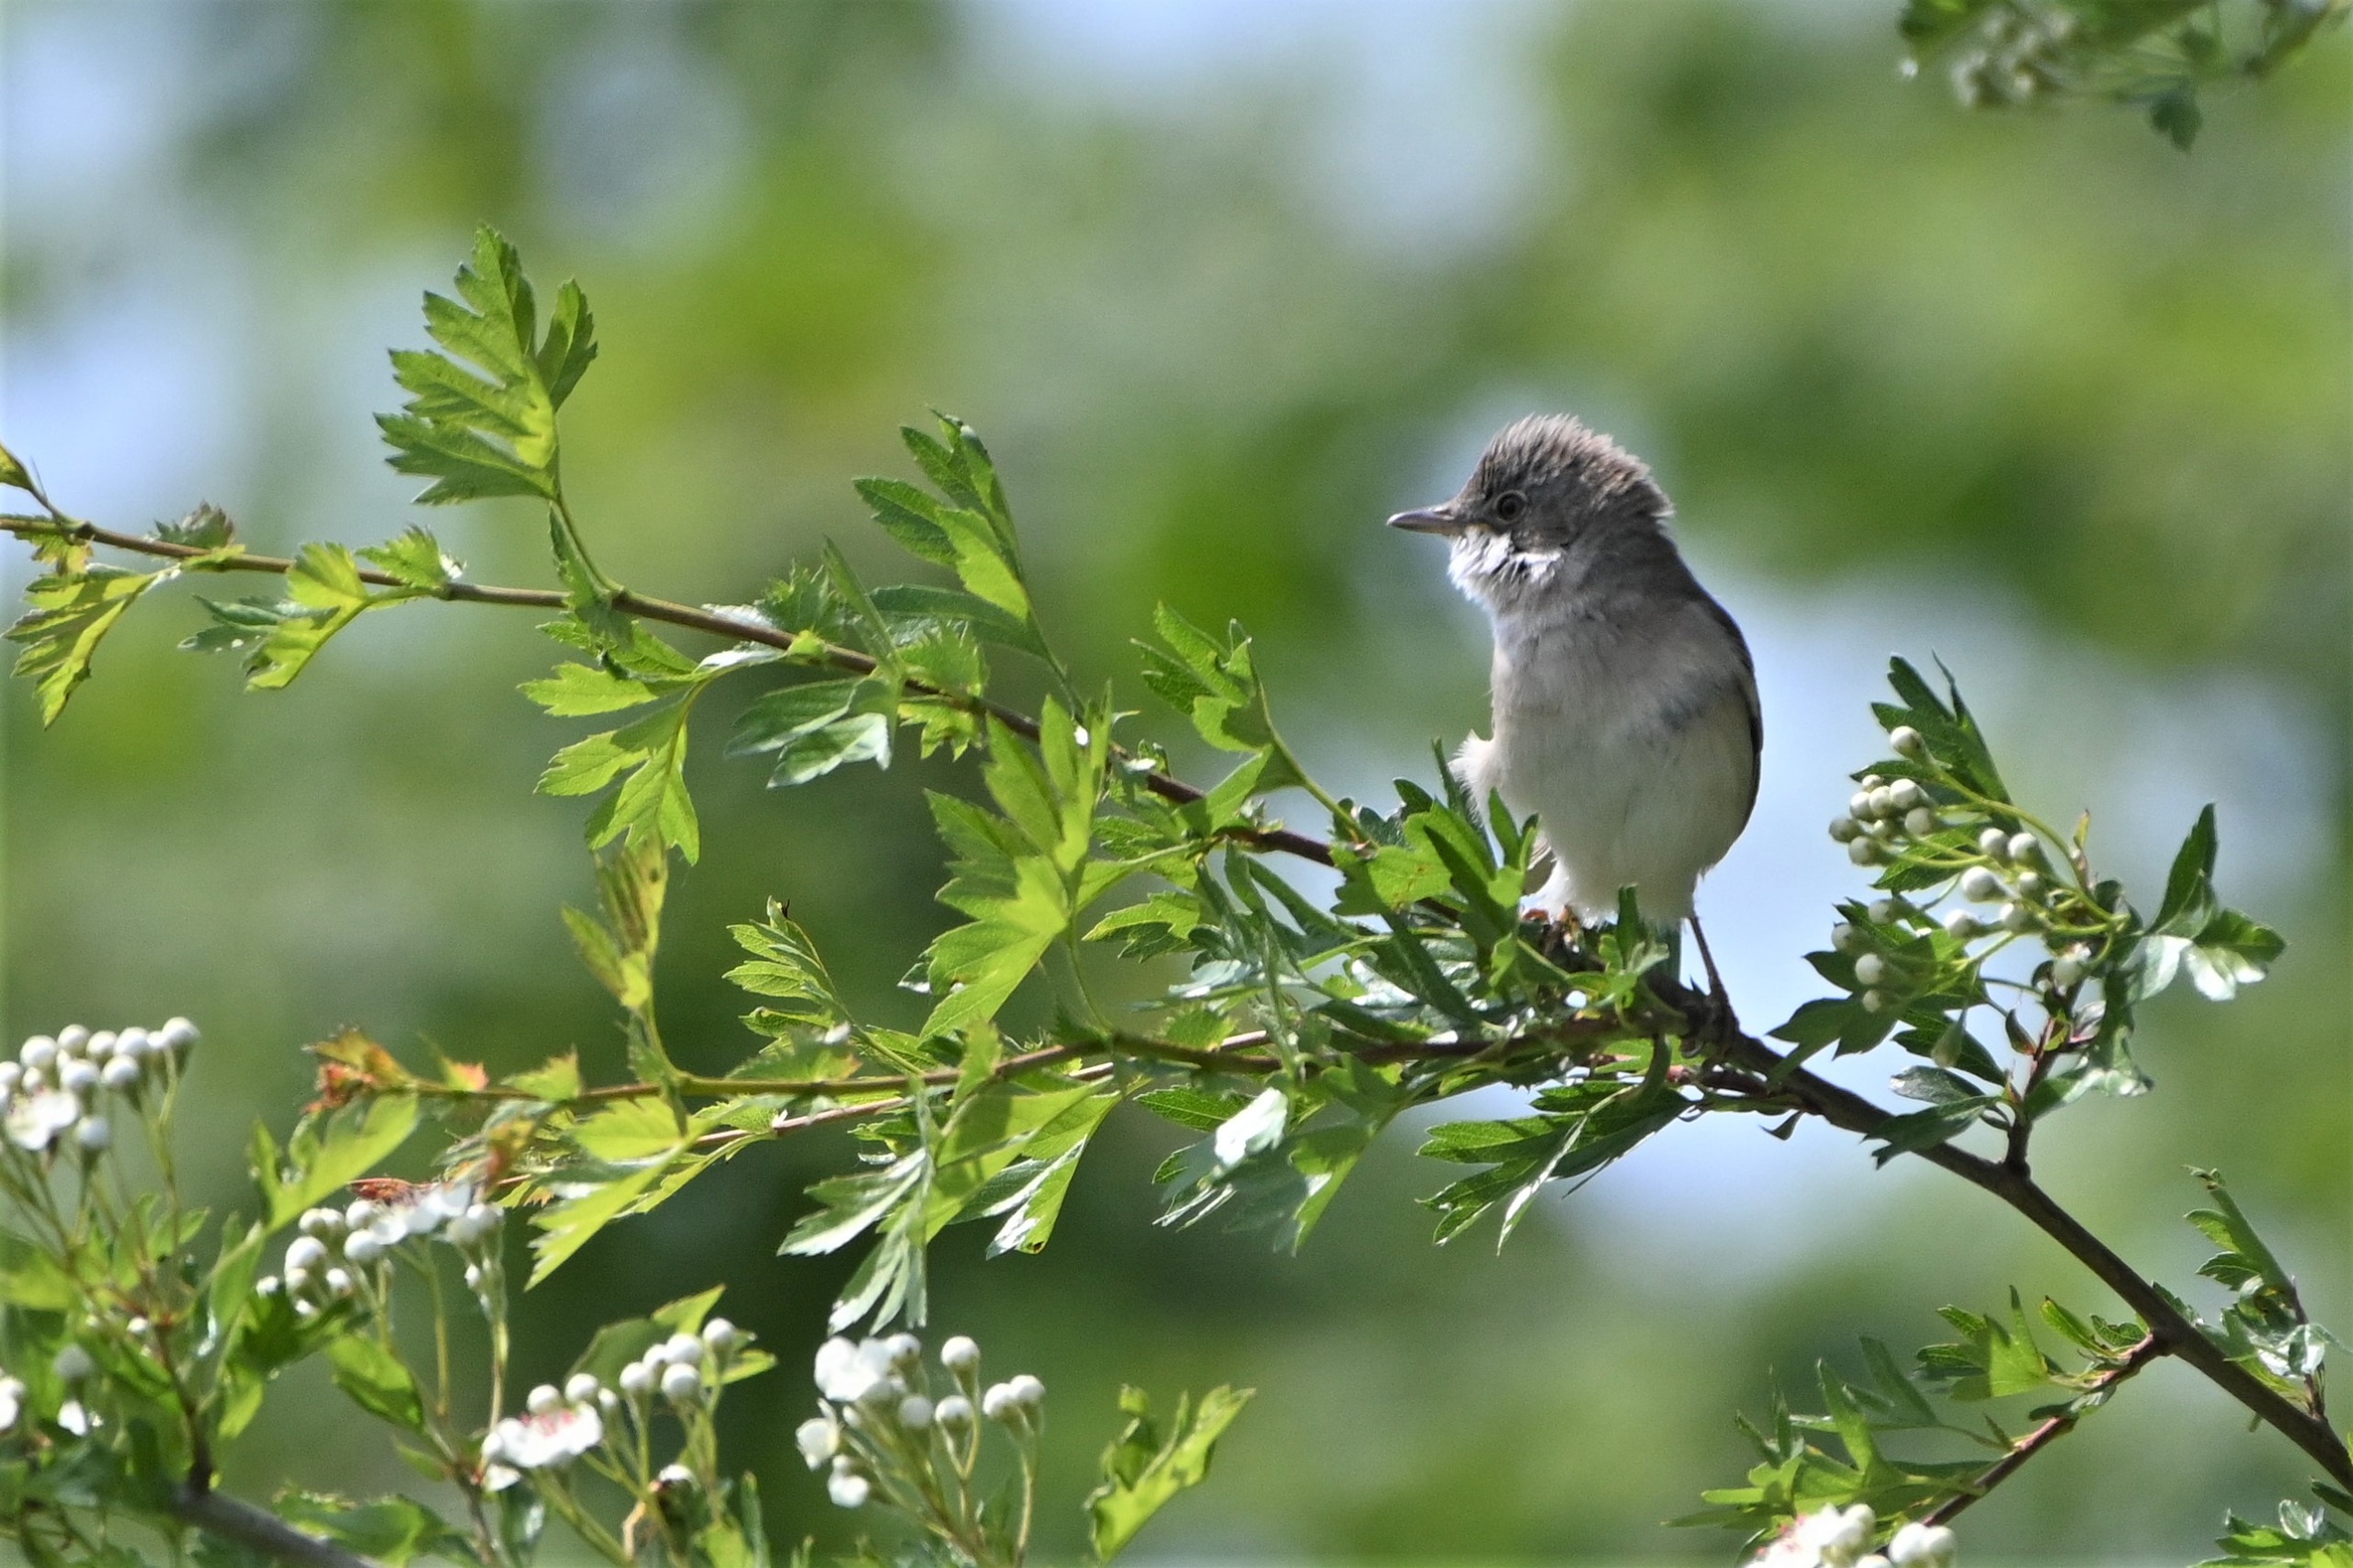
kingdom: Animalia
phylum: Chordata
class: Aves
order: Passeriformes
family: Sylviidae
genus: Sylvia
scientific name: Sylvia communis
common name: Tornsanger
